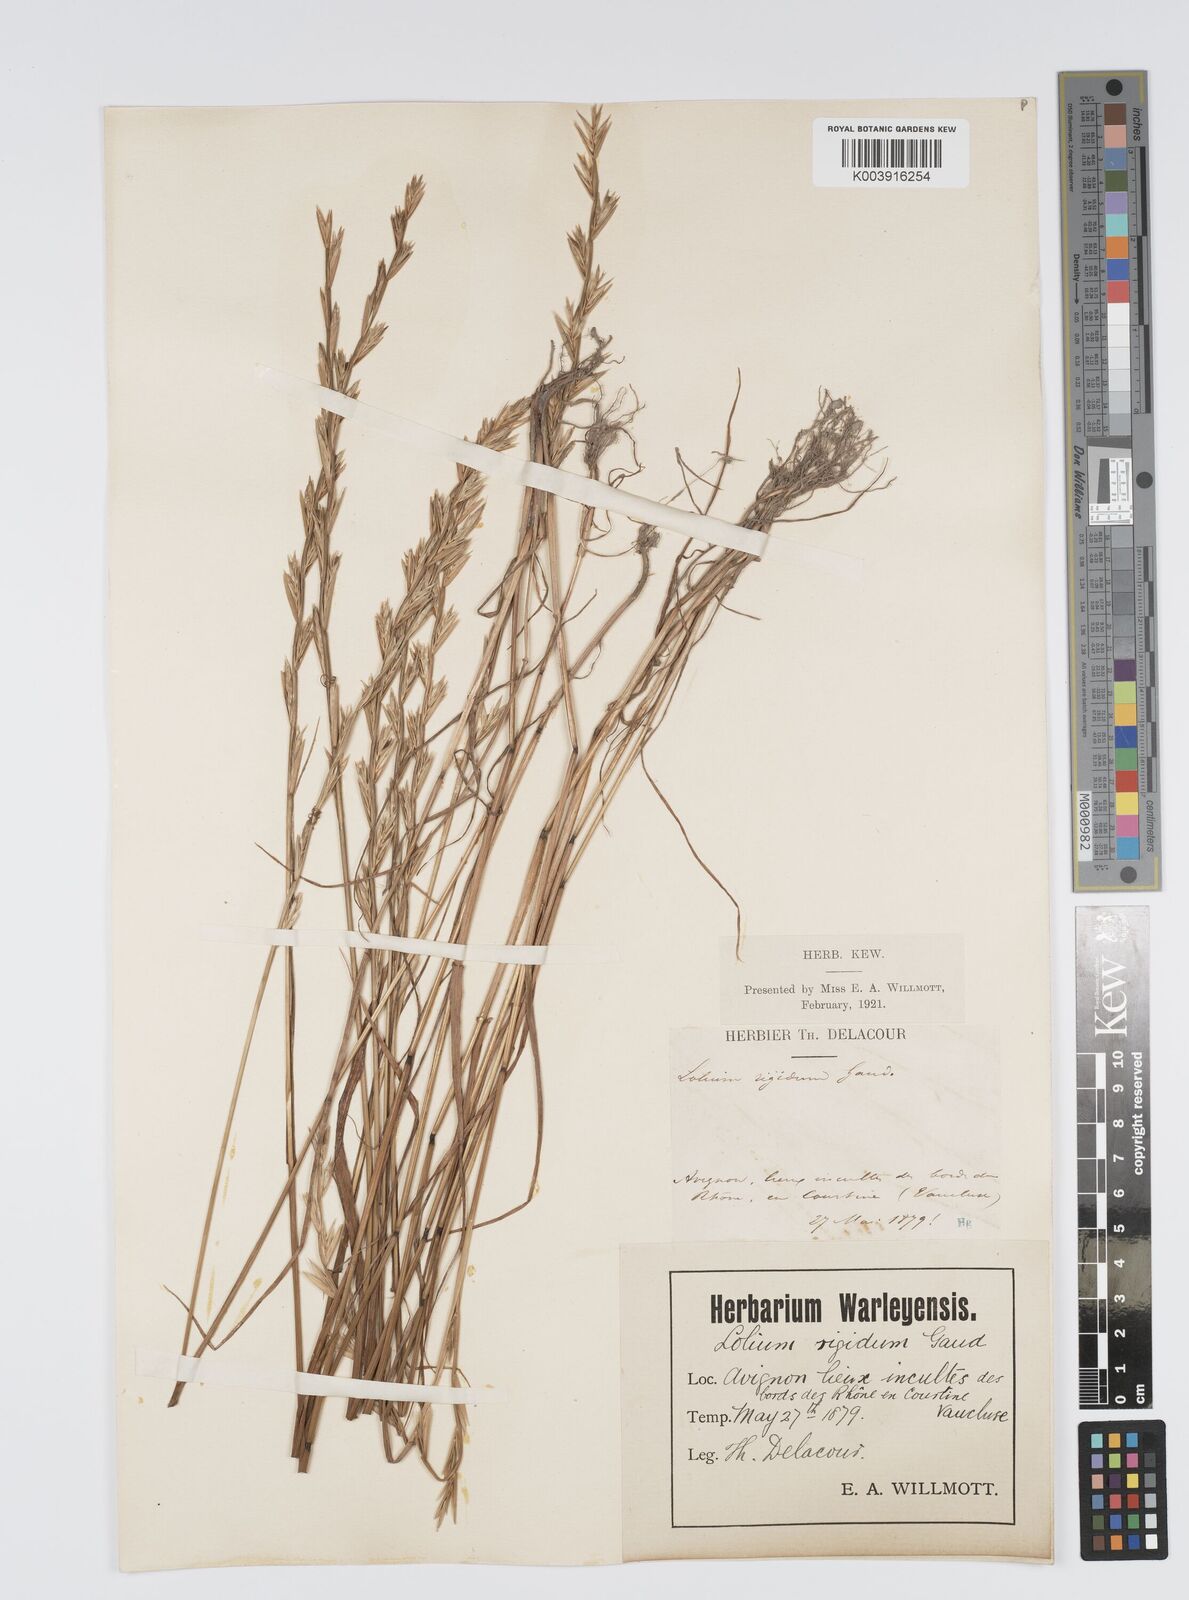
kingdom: Plantae
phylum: Tracheophyta
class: Liliopsida
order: Poales
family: Poaceae
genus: Lolium
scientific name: Lolium rigidum
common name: Wimmera ryegrass
